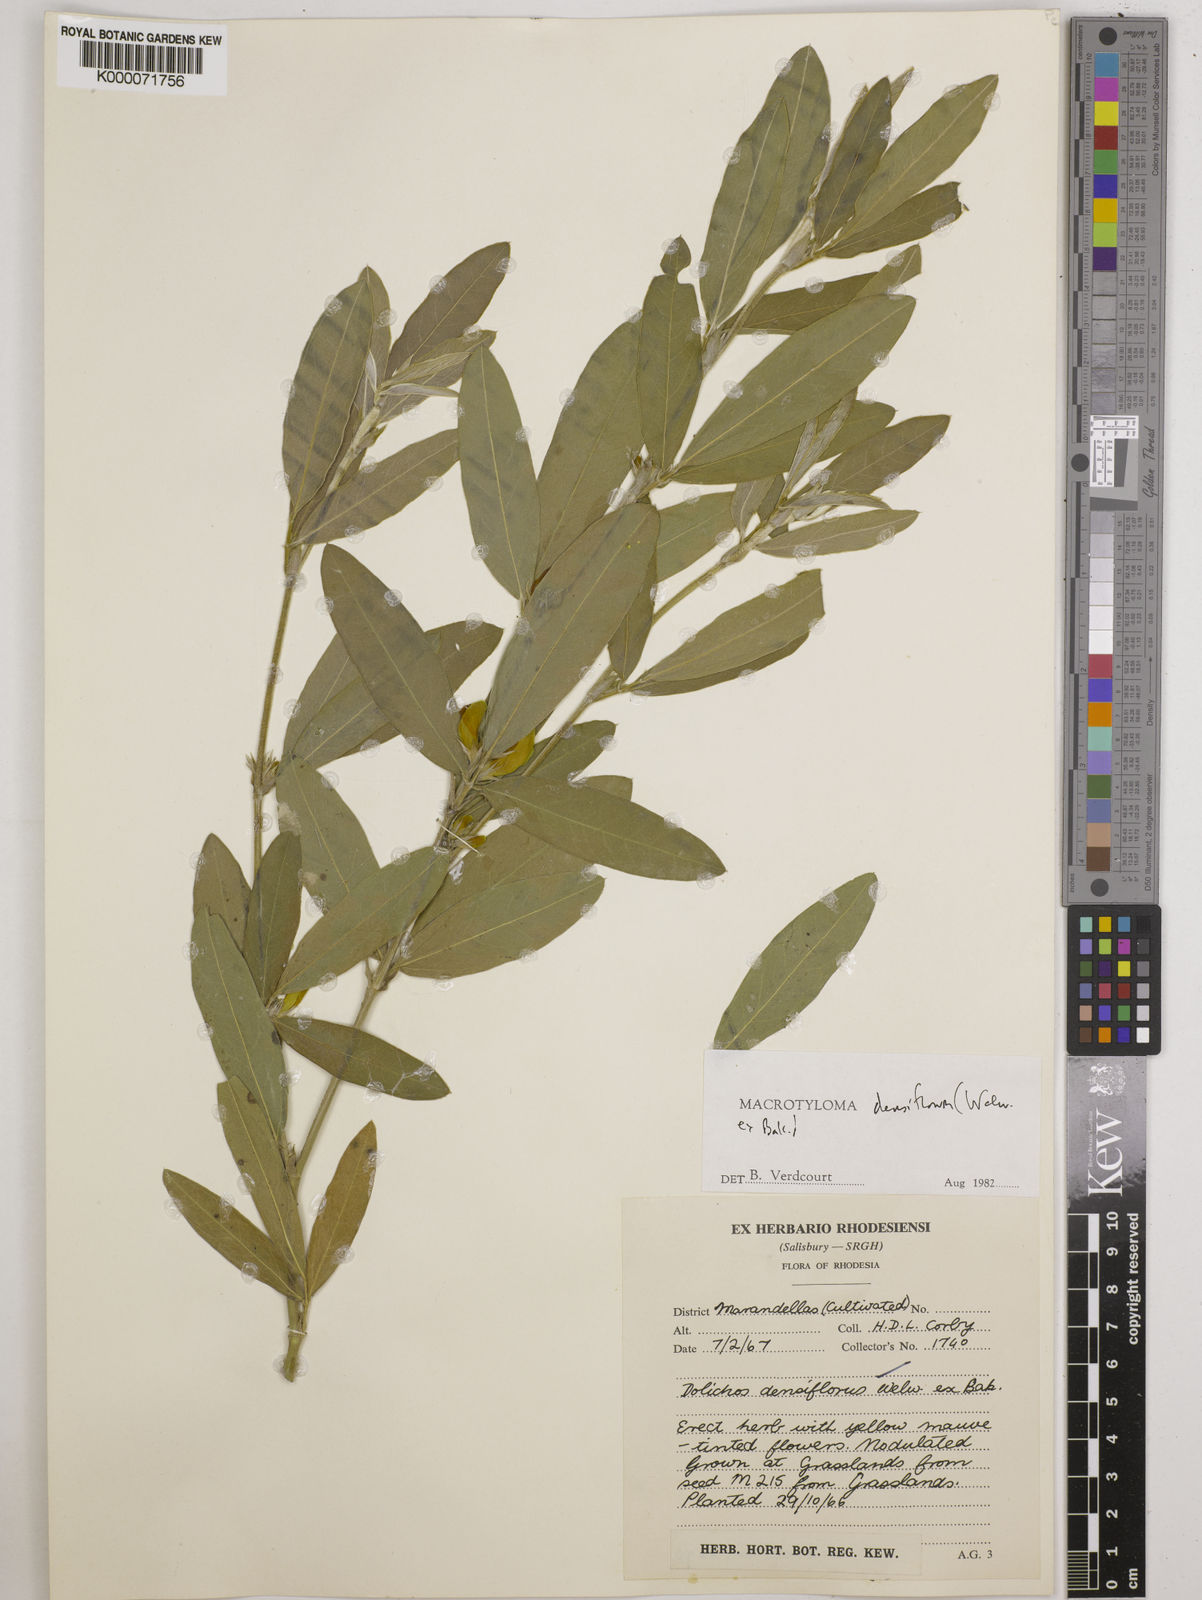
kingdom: Plantae
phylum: Tracheophyta
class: Magnoliopsida
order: Fabales
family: Fabaceae
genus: Macrotyloma
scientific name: Macrotyloma densiflorum
